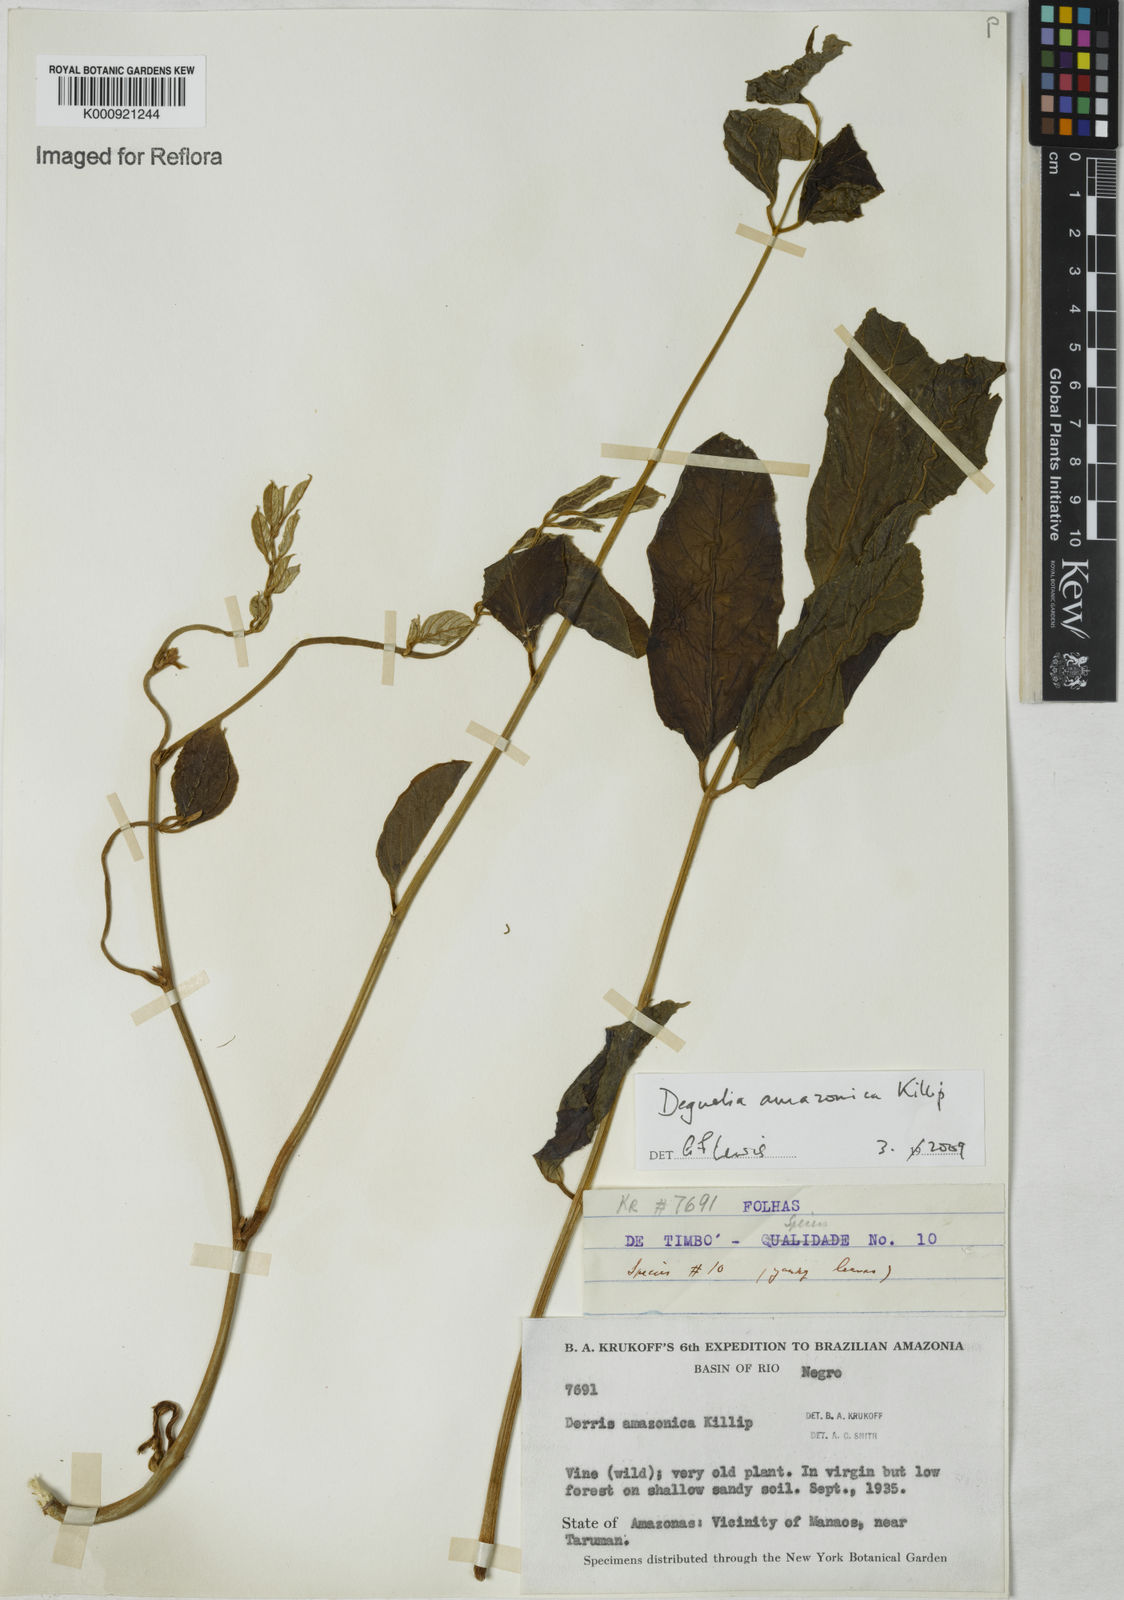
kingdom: Plantae
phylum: Tracheophyta
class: Magnoliopsida
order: Fabales
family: Fabaceae
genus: Deguelia
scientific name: Deguelia amazonica
